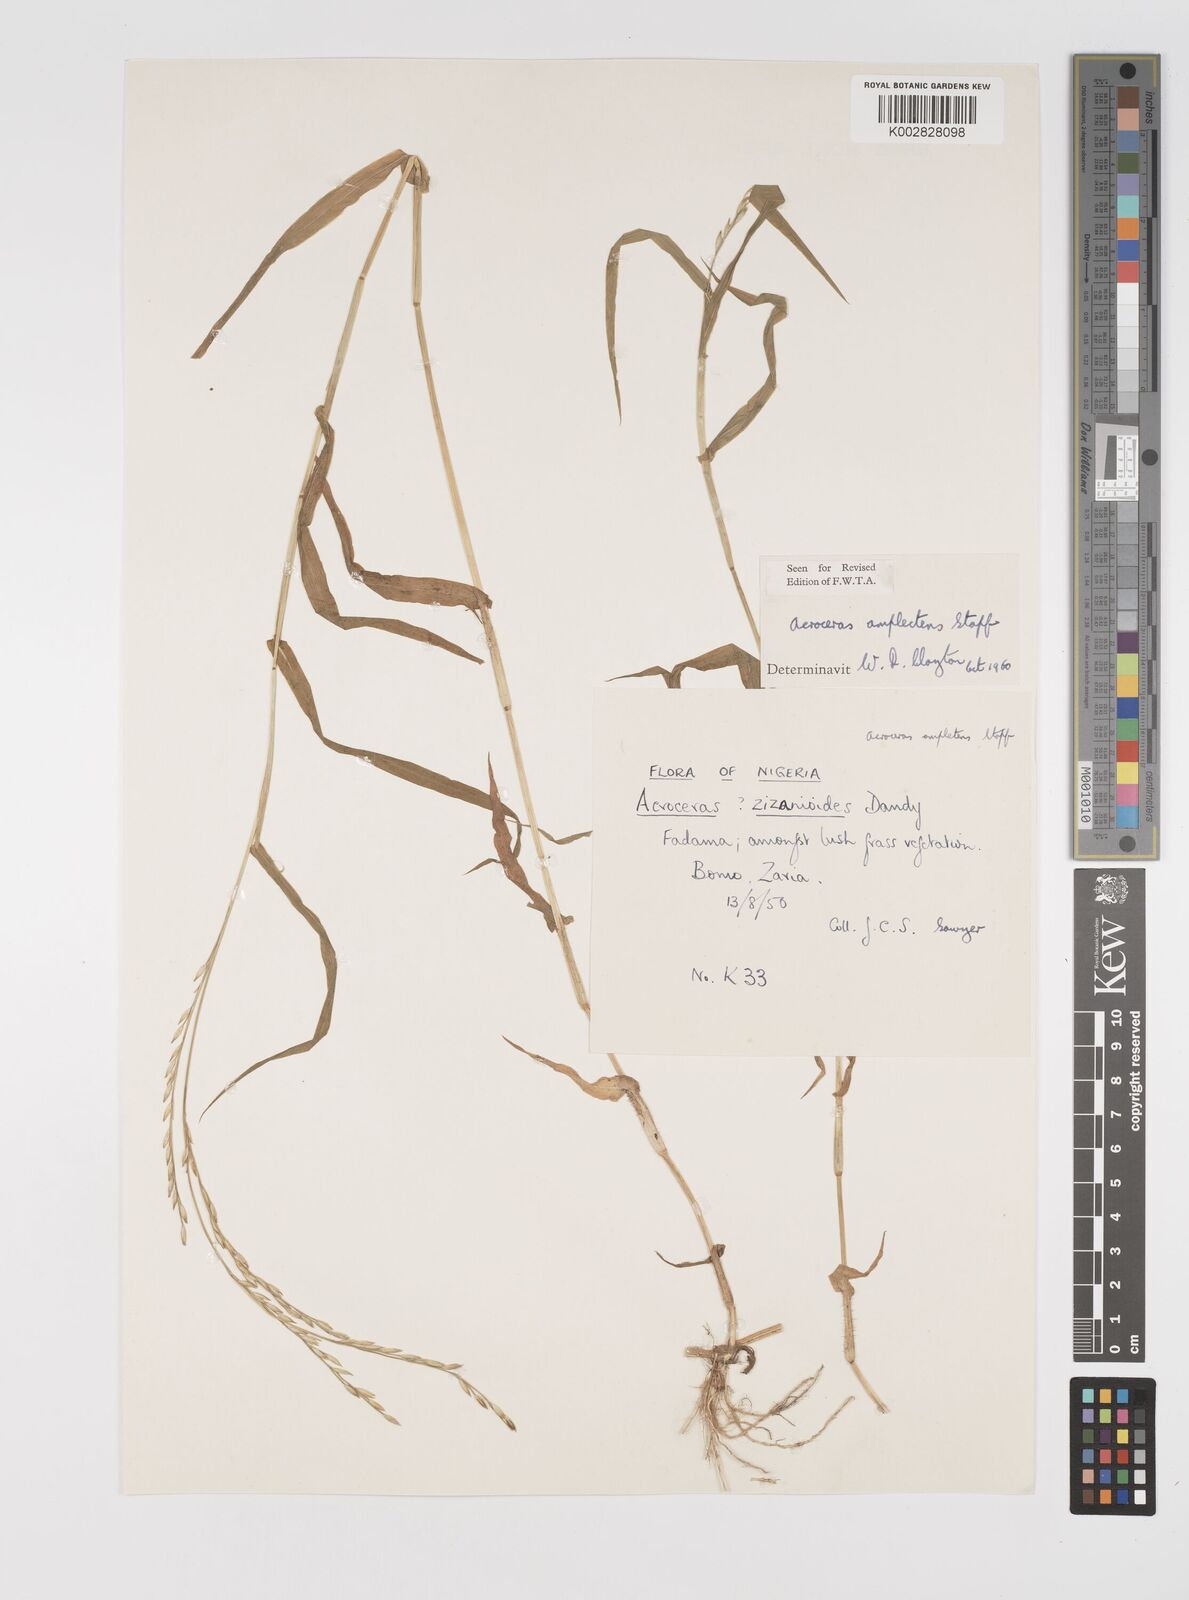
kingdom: Plantae
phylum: Tracheophyta
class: Liliopsida
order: Poales
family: Poaceae
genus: Acroceras
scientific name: Acroceras amplectens
